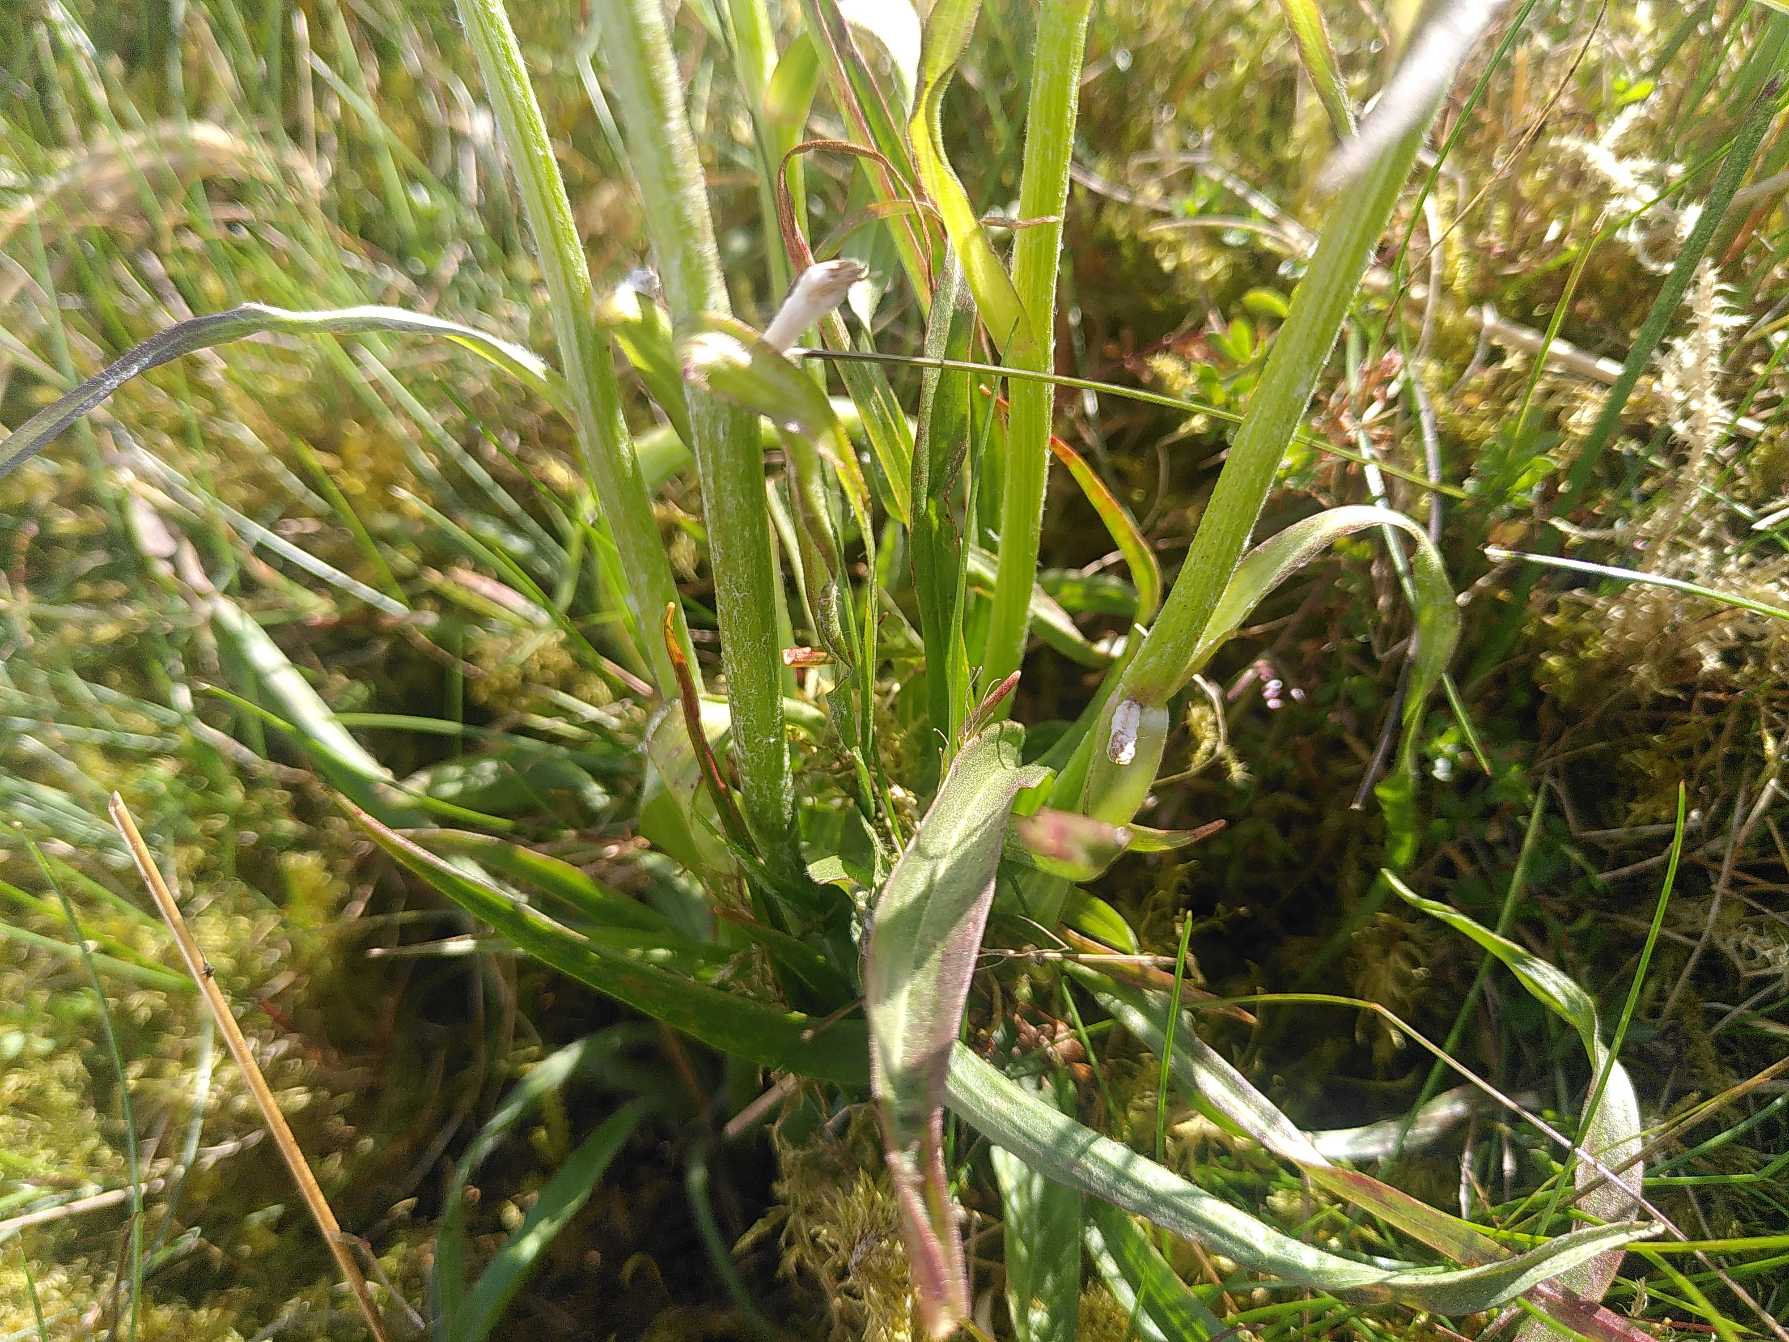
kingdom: Plantae
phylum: Tracheophyta
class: Magnoliopsida
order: Asterales
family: Asteraceae
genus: Scorzonera
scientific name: Scorzonera humilis
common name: Lav skorsoner
